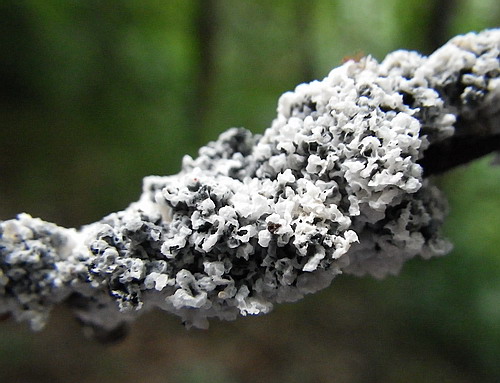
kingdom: Protozoa
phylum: Mycetozoa
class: Myxomycetes
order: Physarales
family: Physaraceae
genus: Didymium
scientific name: Didymium
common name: urteskum
